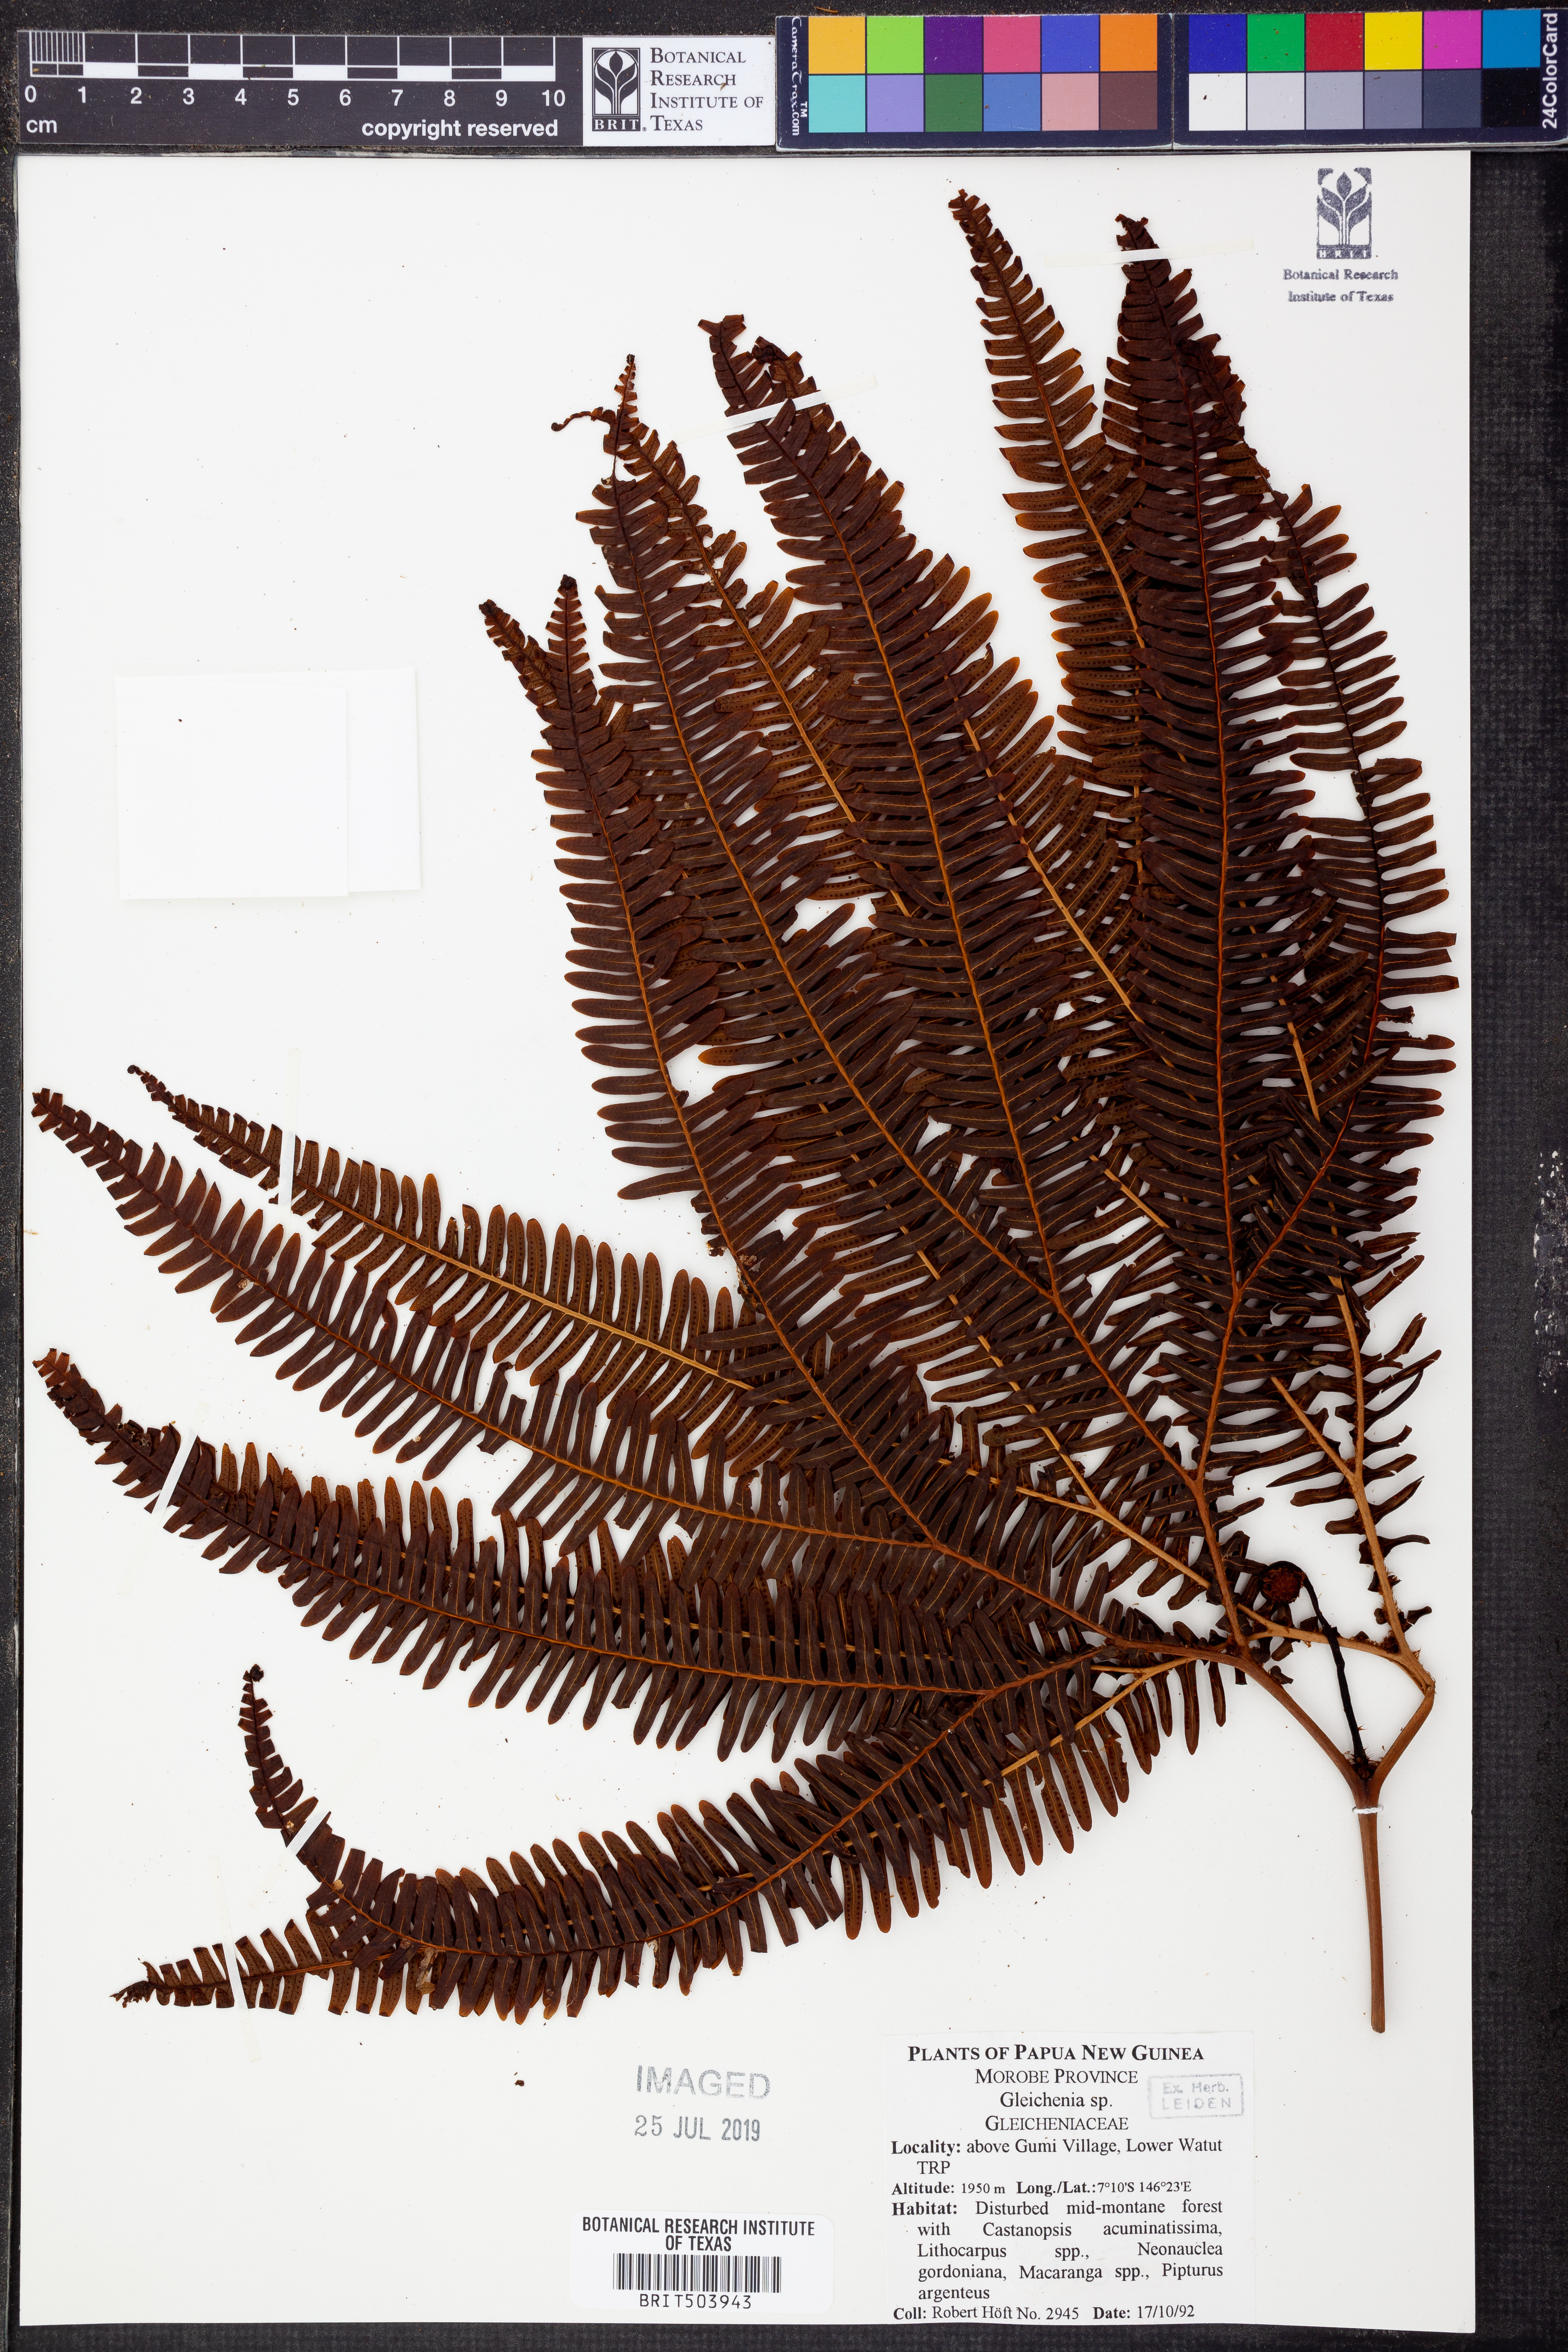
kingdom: Plantae
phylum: Tracheophyta
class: Polypodiopsida
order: Gleicheniales
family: Gleicheniaceae
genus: Gleichenia
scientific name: Gleichenia
